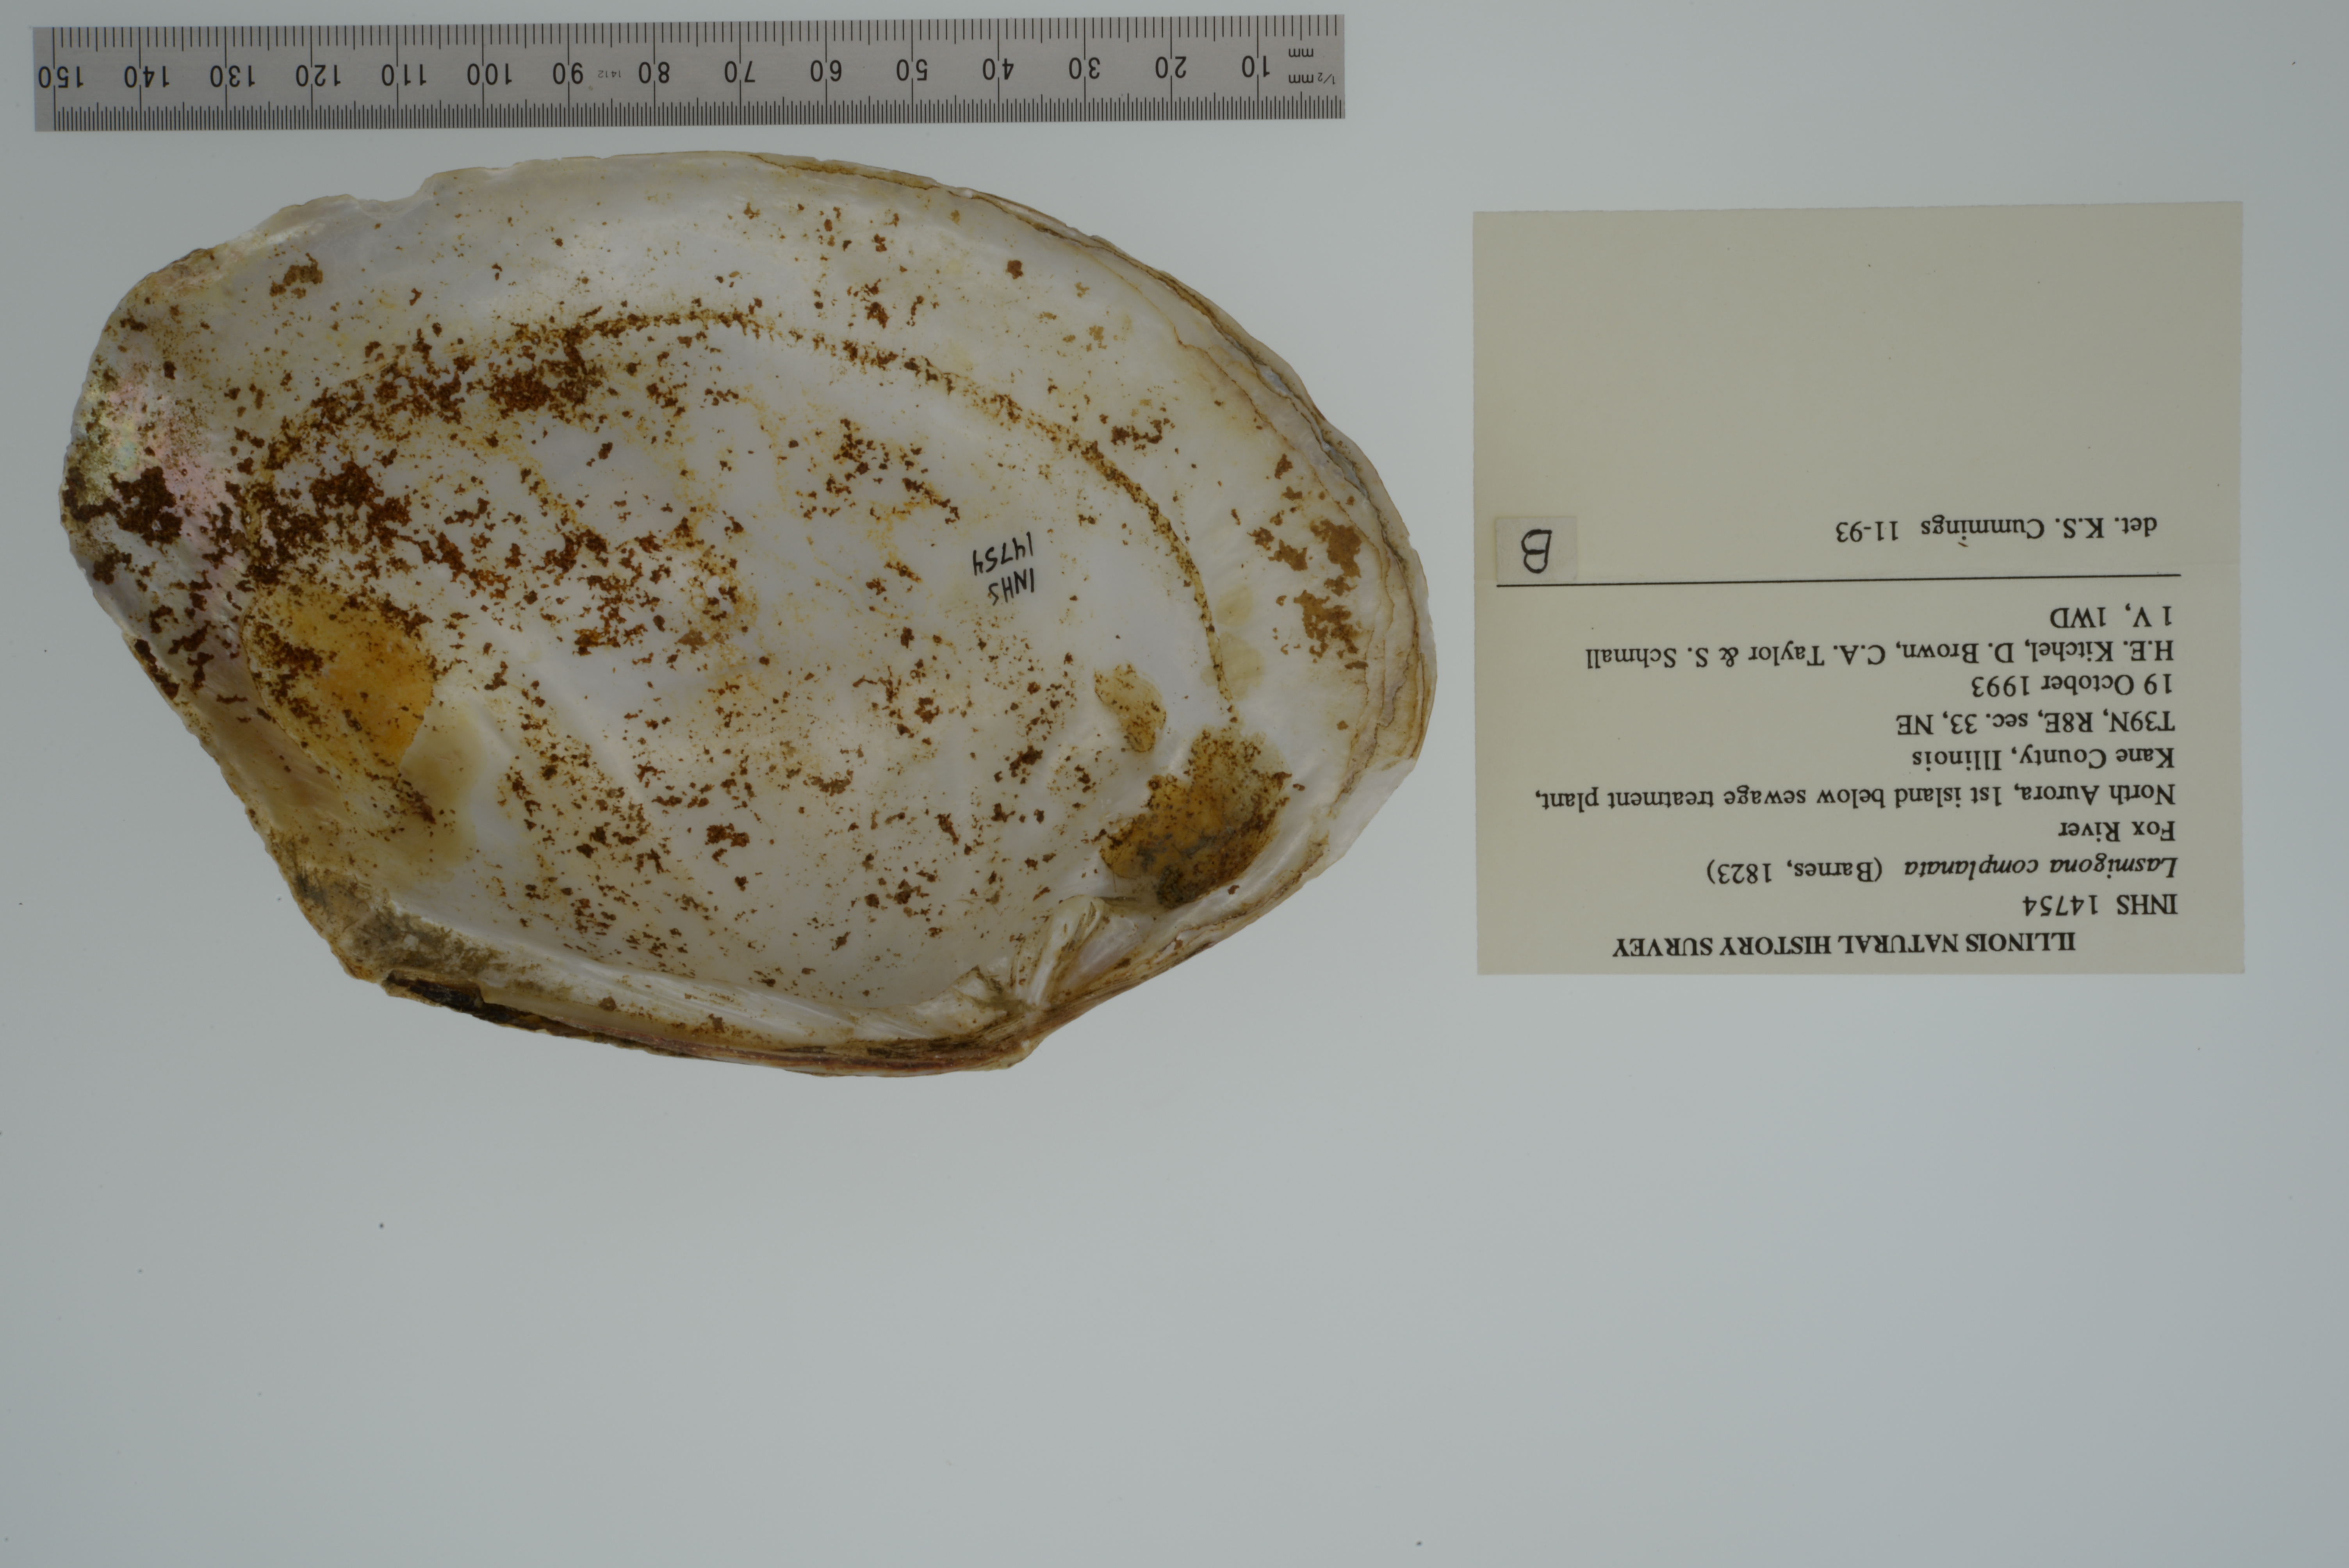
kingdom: Animalia
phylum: Mollusca
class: Bivalvia
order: Unionida
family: Unionidae
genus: Lasmigona
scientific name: Lasmigona complanata
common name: White heelsplitter
